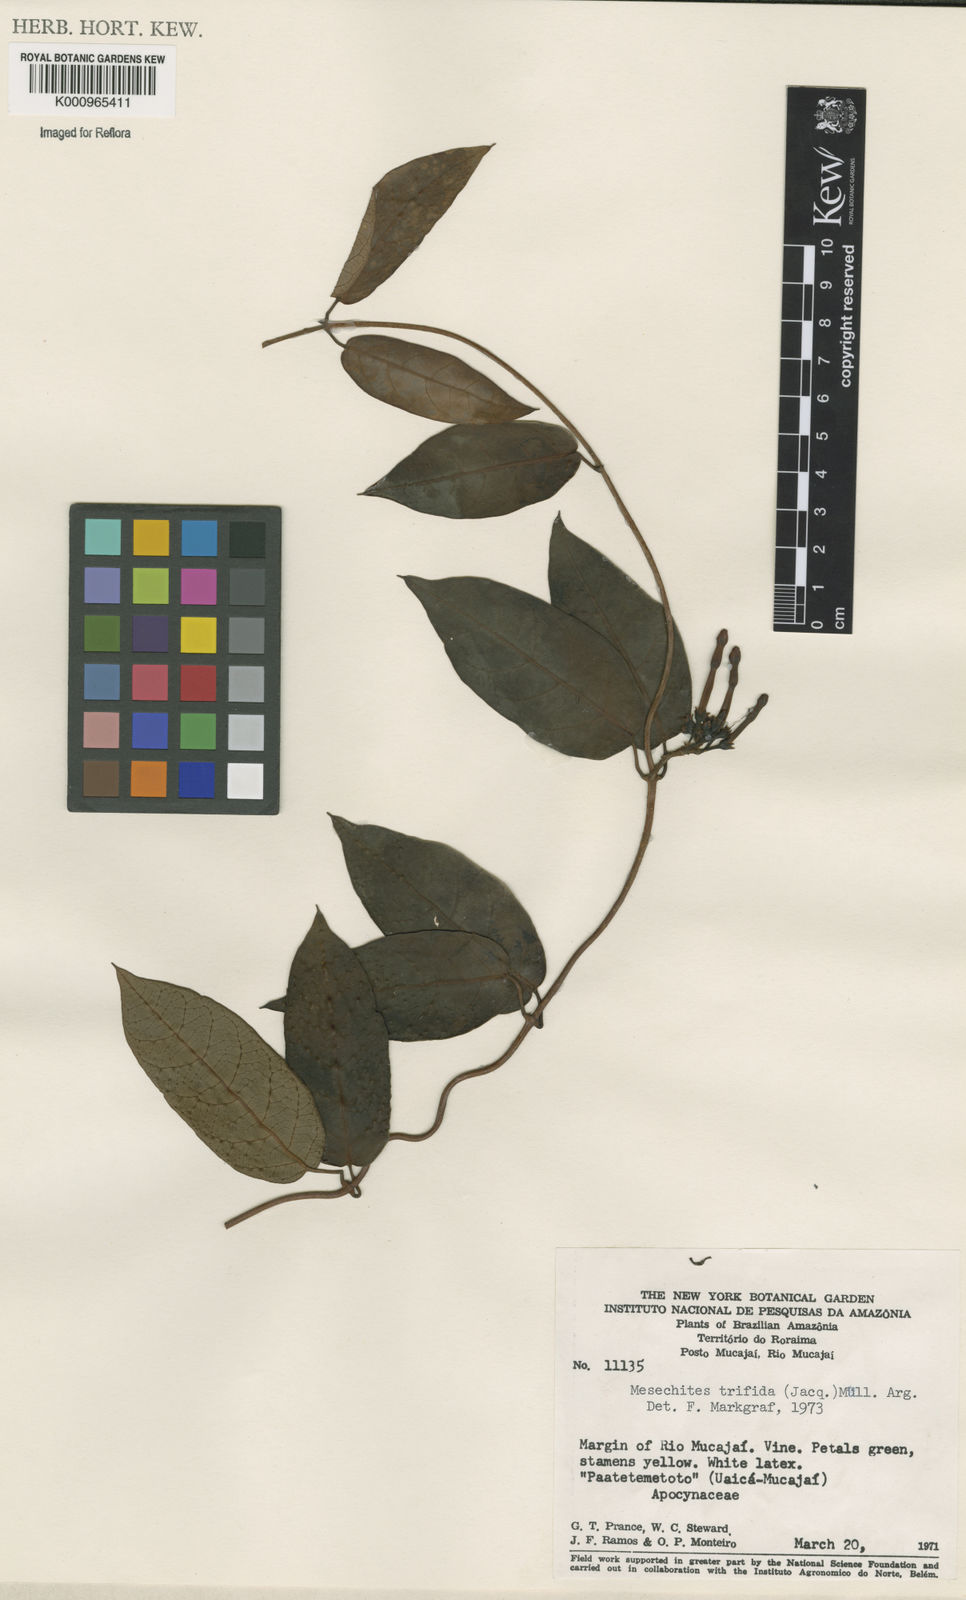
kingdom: Plantae
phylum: Tracheophyta
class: Magnoliopsida
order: Gentianales
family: Apocynaceae
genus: Mesechites
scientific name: Mesechites
